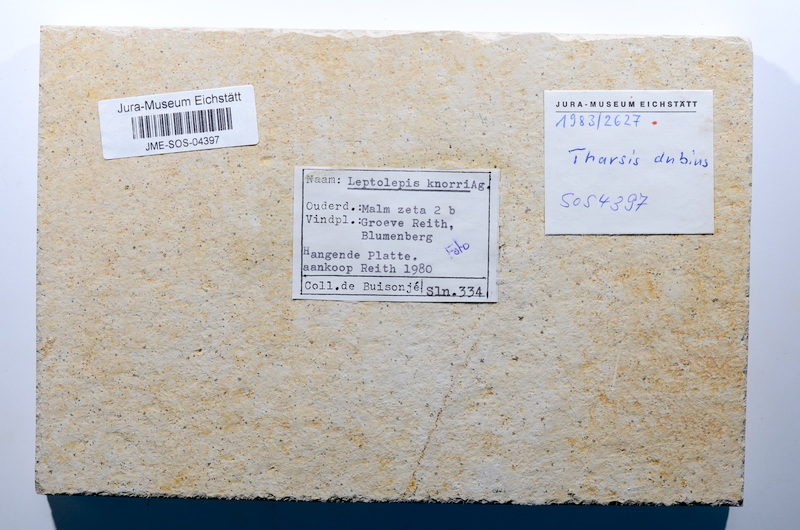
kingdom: Animalia
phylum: Chordata
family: Ascalaboidae
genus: Tharsis
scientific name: Tharsis dubius
